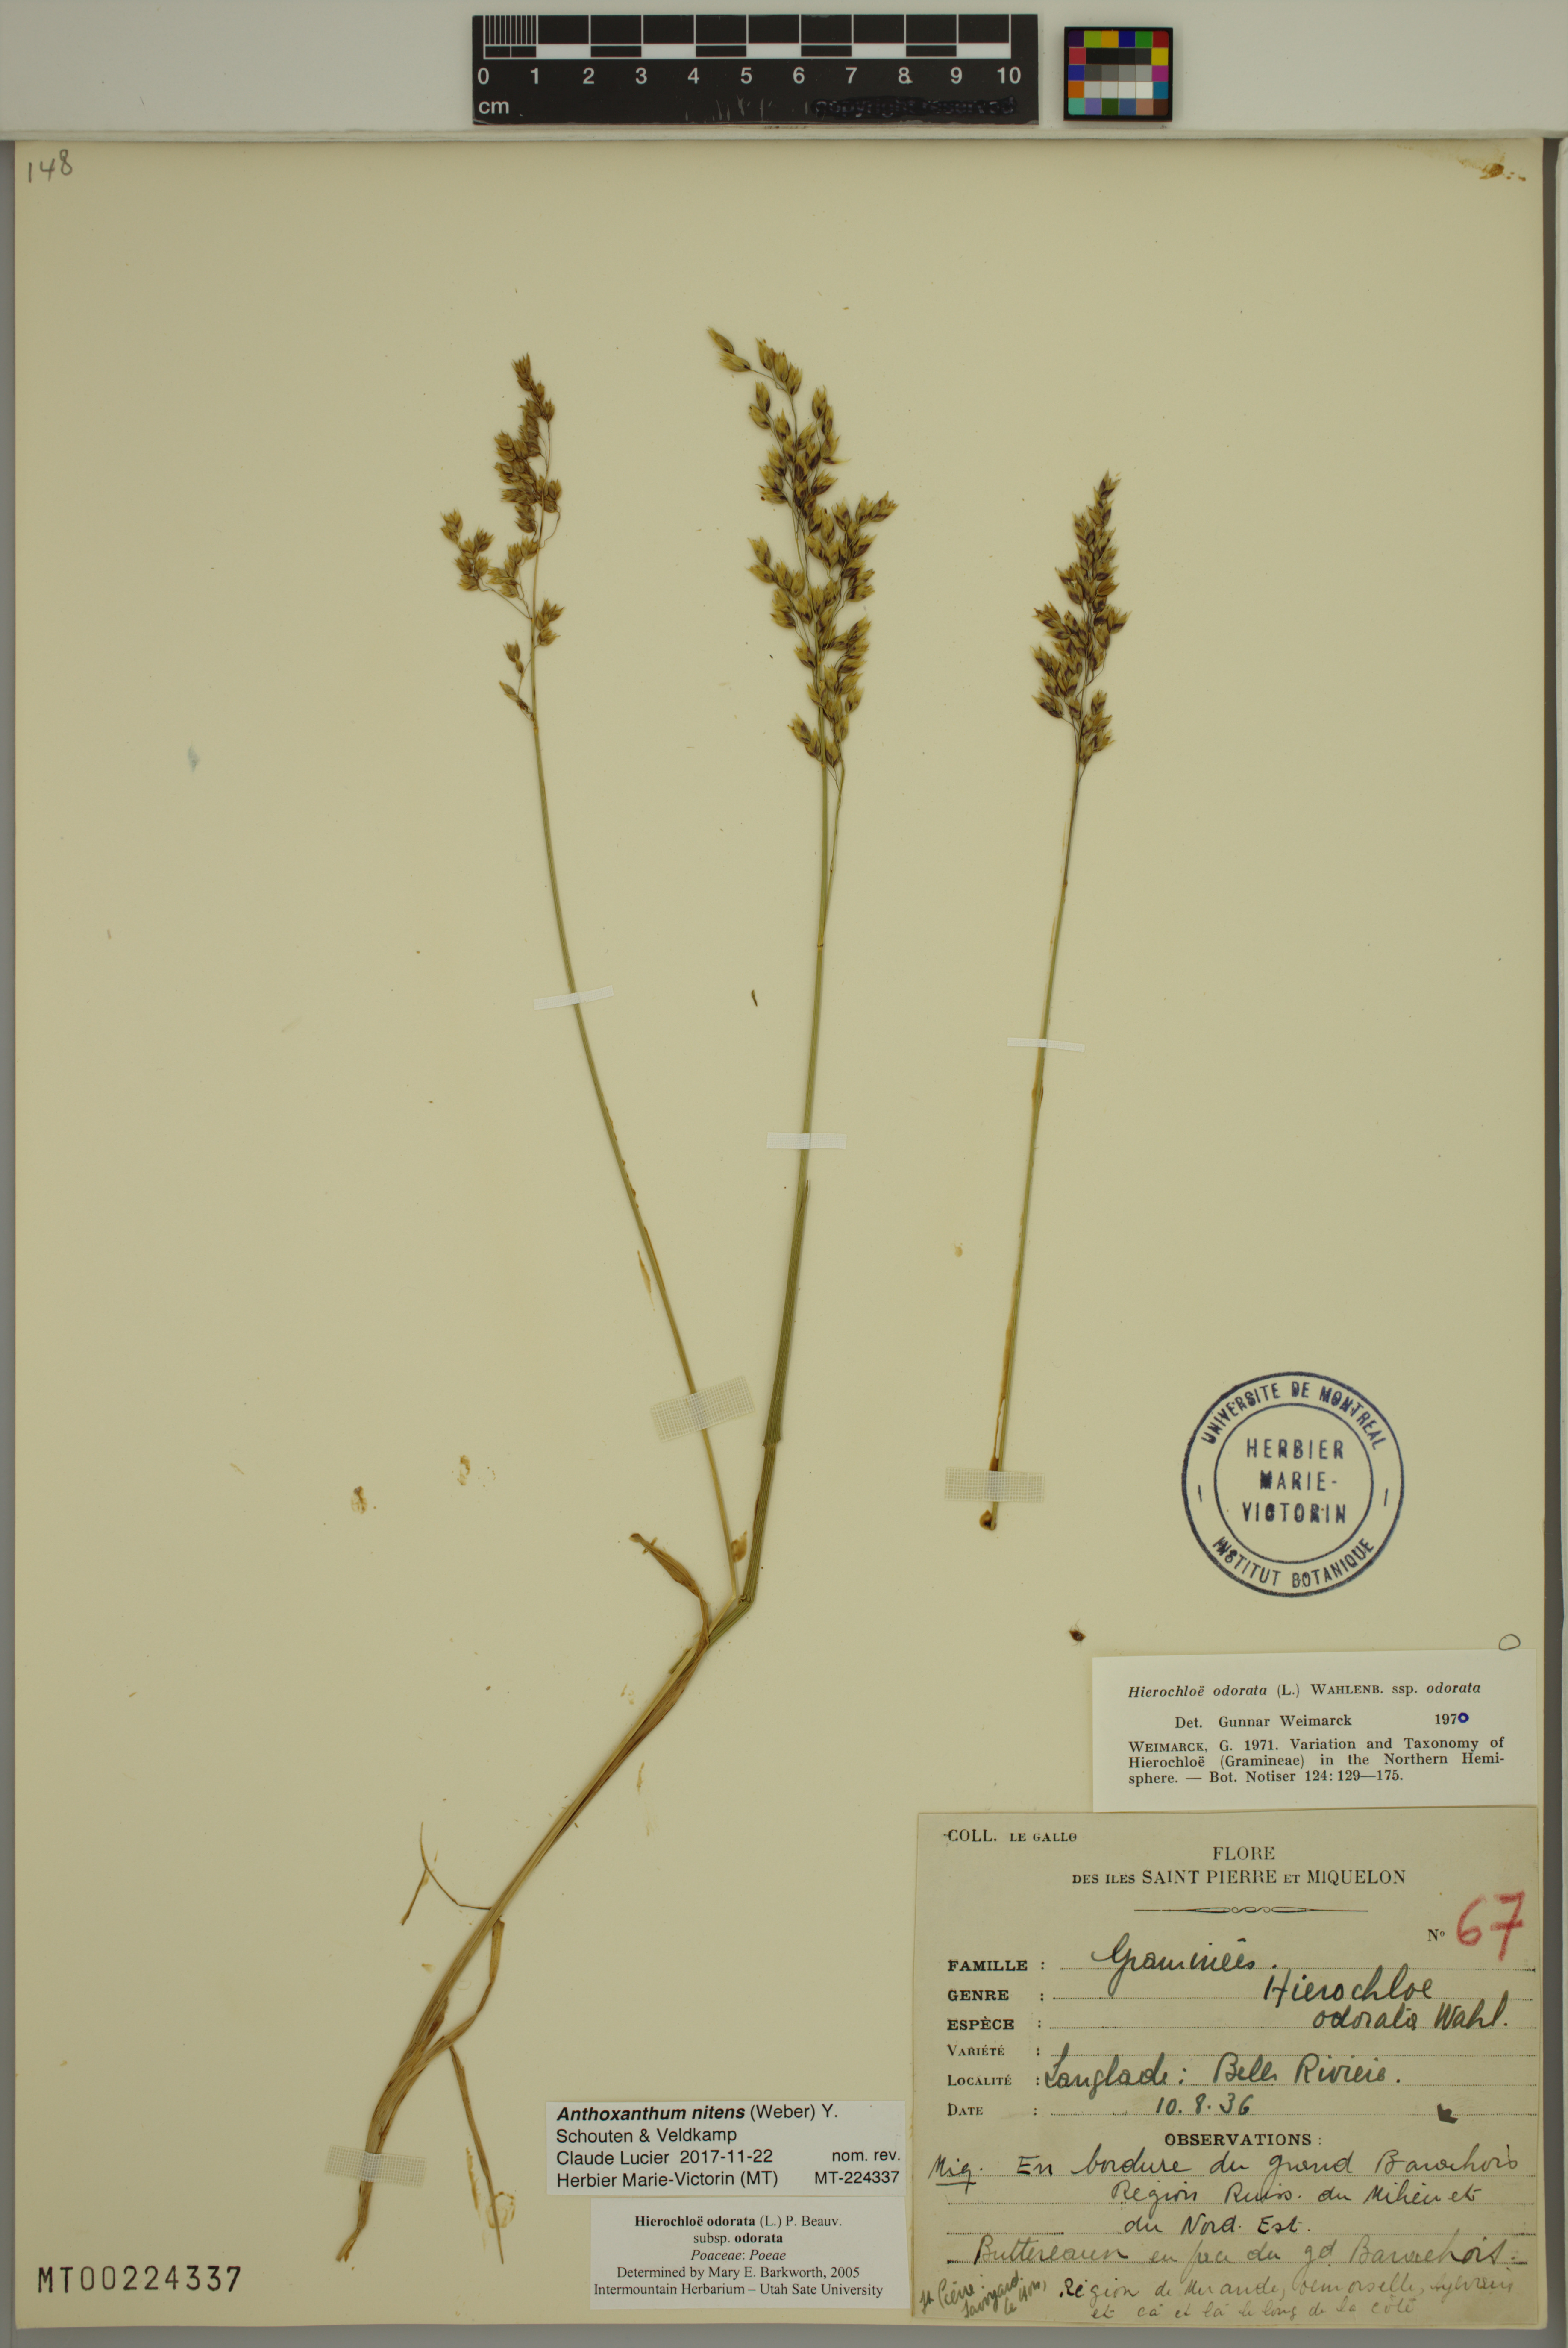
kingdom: Plantae
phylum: Tracheophyta
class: Liliopsida
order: Poales
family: Poaceae
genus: Anthoxanthum
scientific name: Anthoxanthum nitens
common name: Holy grass
